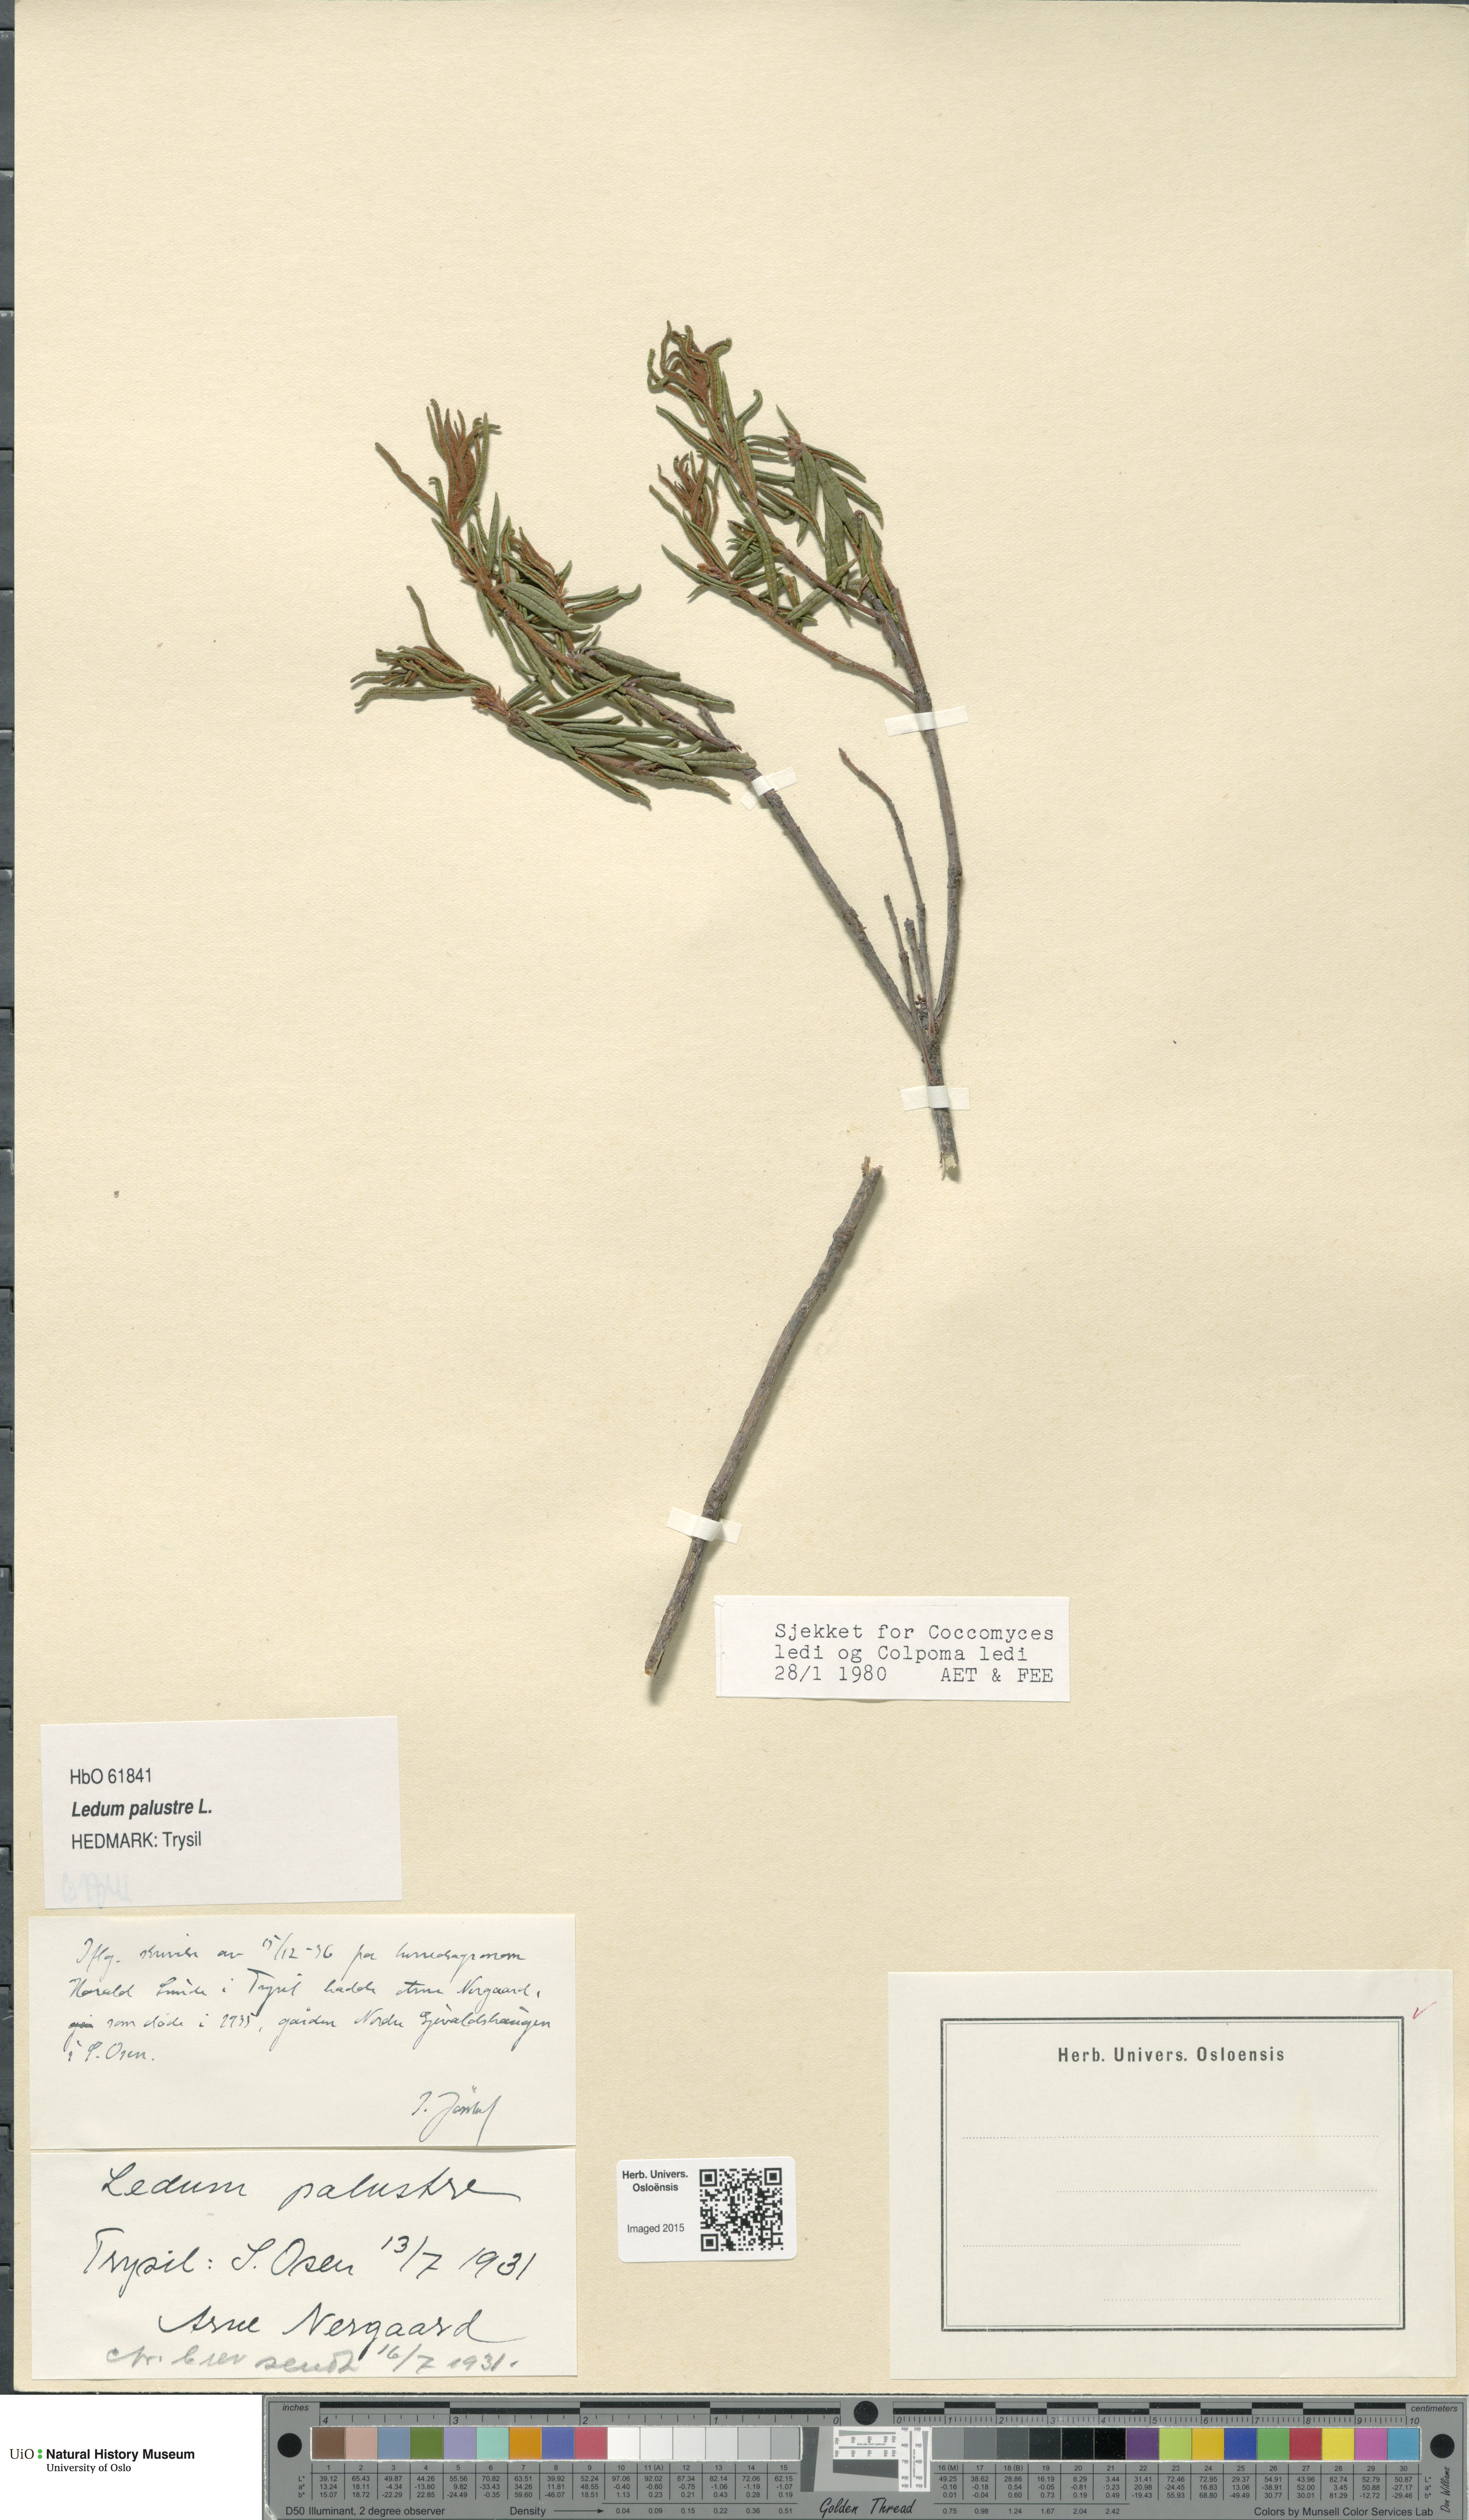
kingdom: Plantae
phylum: Tracheophyta
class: Magnoliopsida
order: Ericales
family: Ericaceae
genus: Rhododendron
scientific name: Rhododendron tomentosum
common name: Marsh labrador tea
